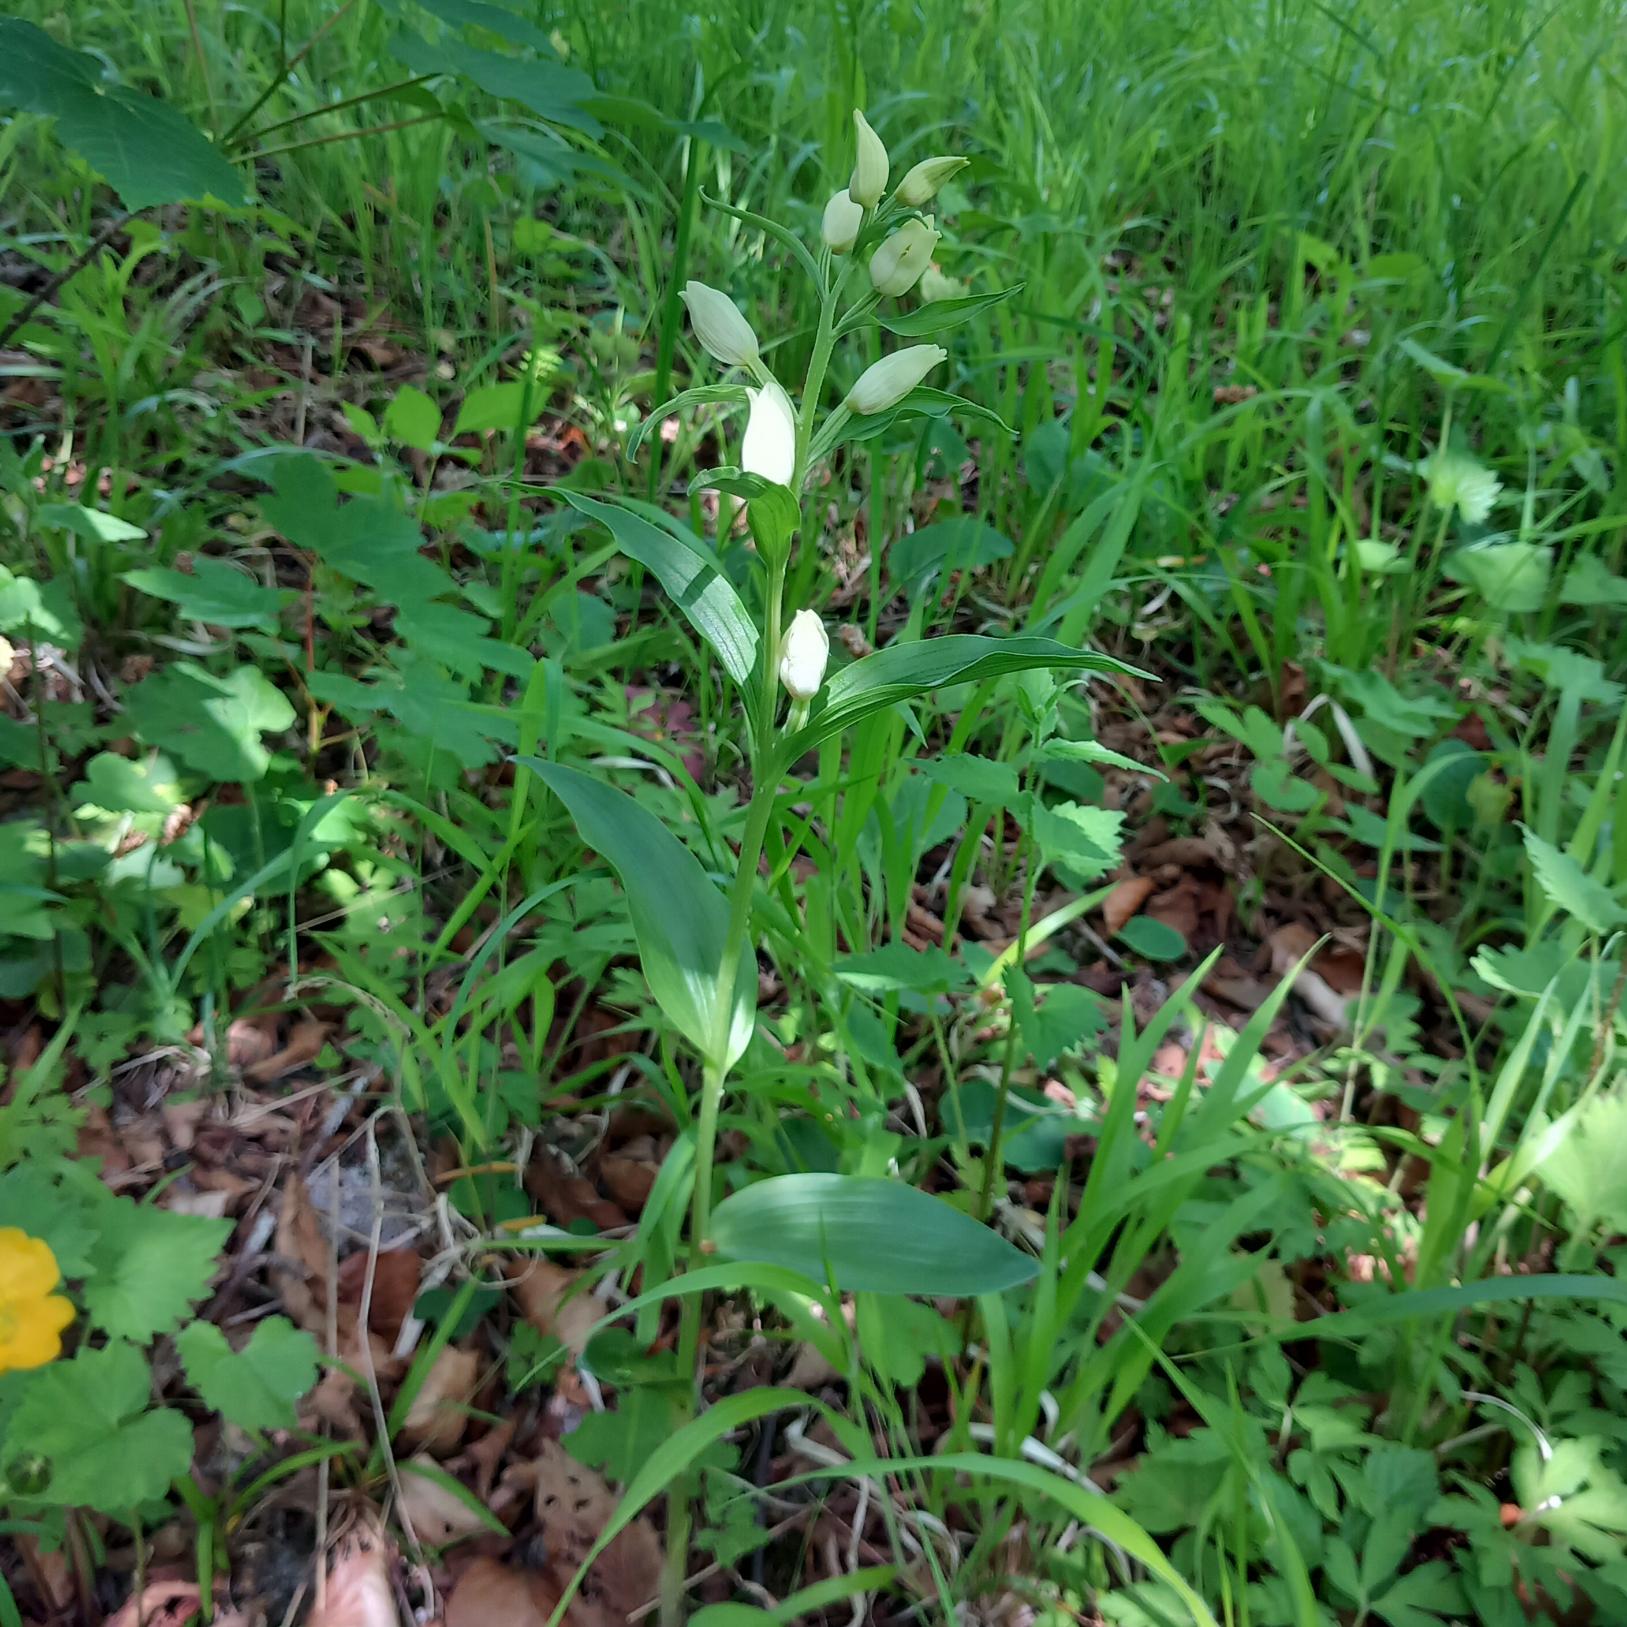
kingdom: Plantae
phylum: Tracheophyta
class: Liliopsida
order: Asparagales
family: Orchidaceae
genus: Cephalanthera
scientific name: Cephalanthera damasonium
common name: Hvidgul skovlilje
